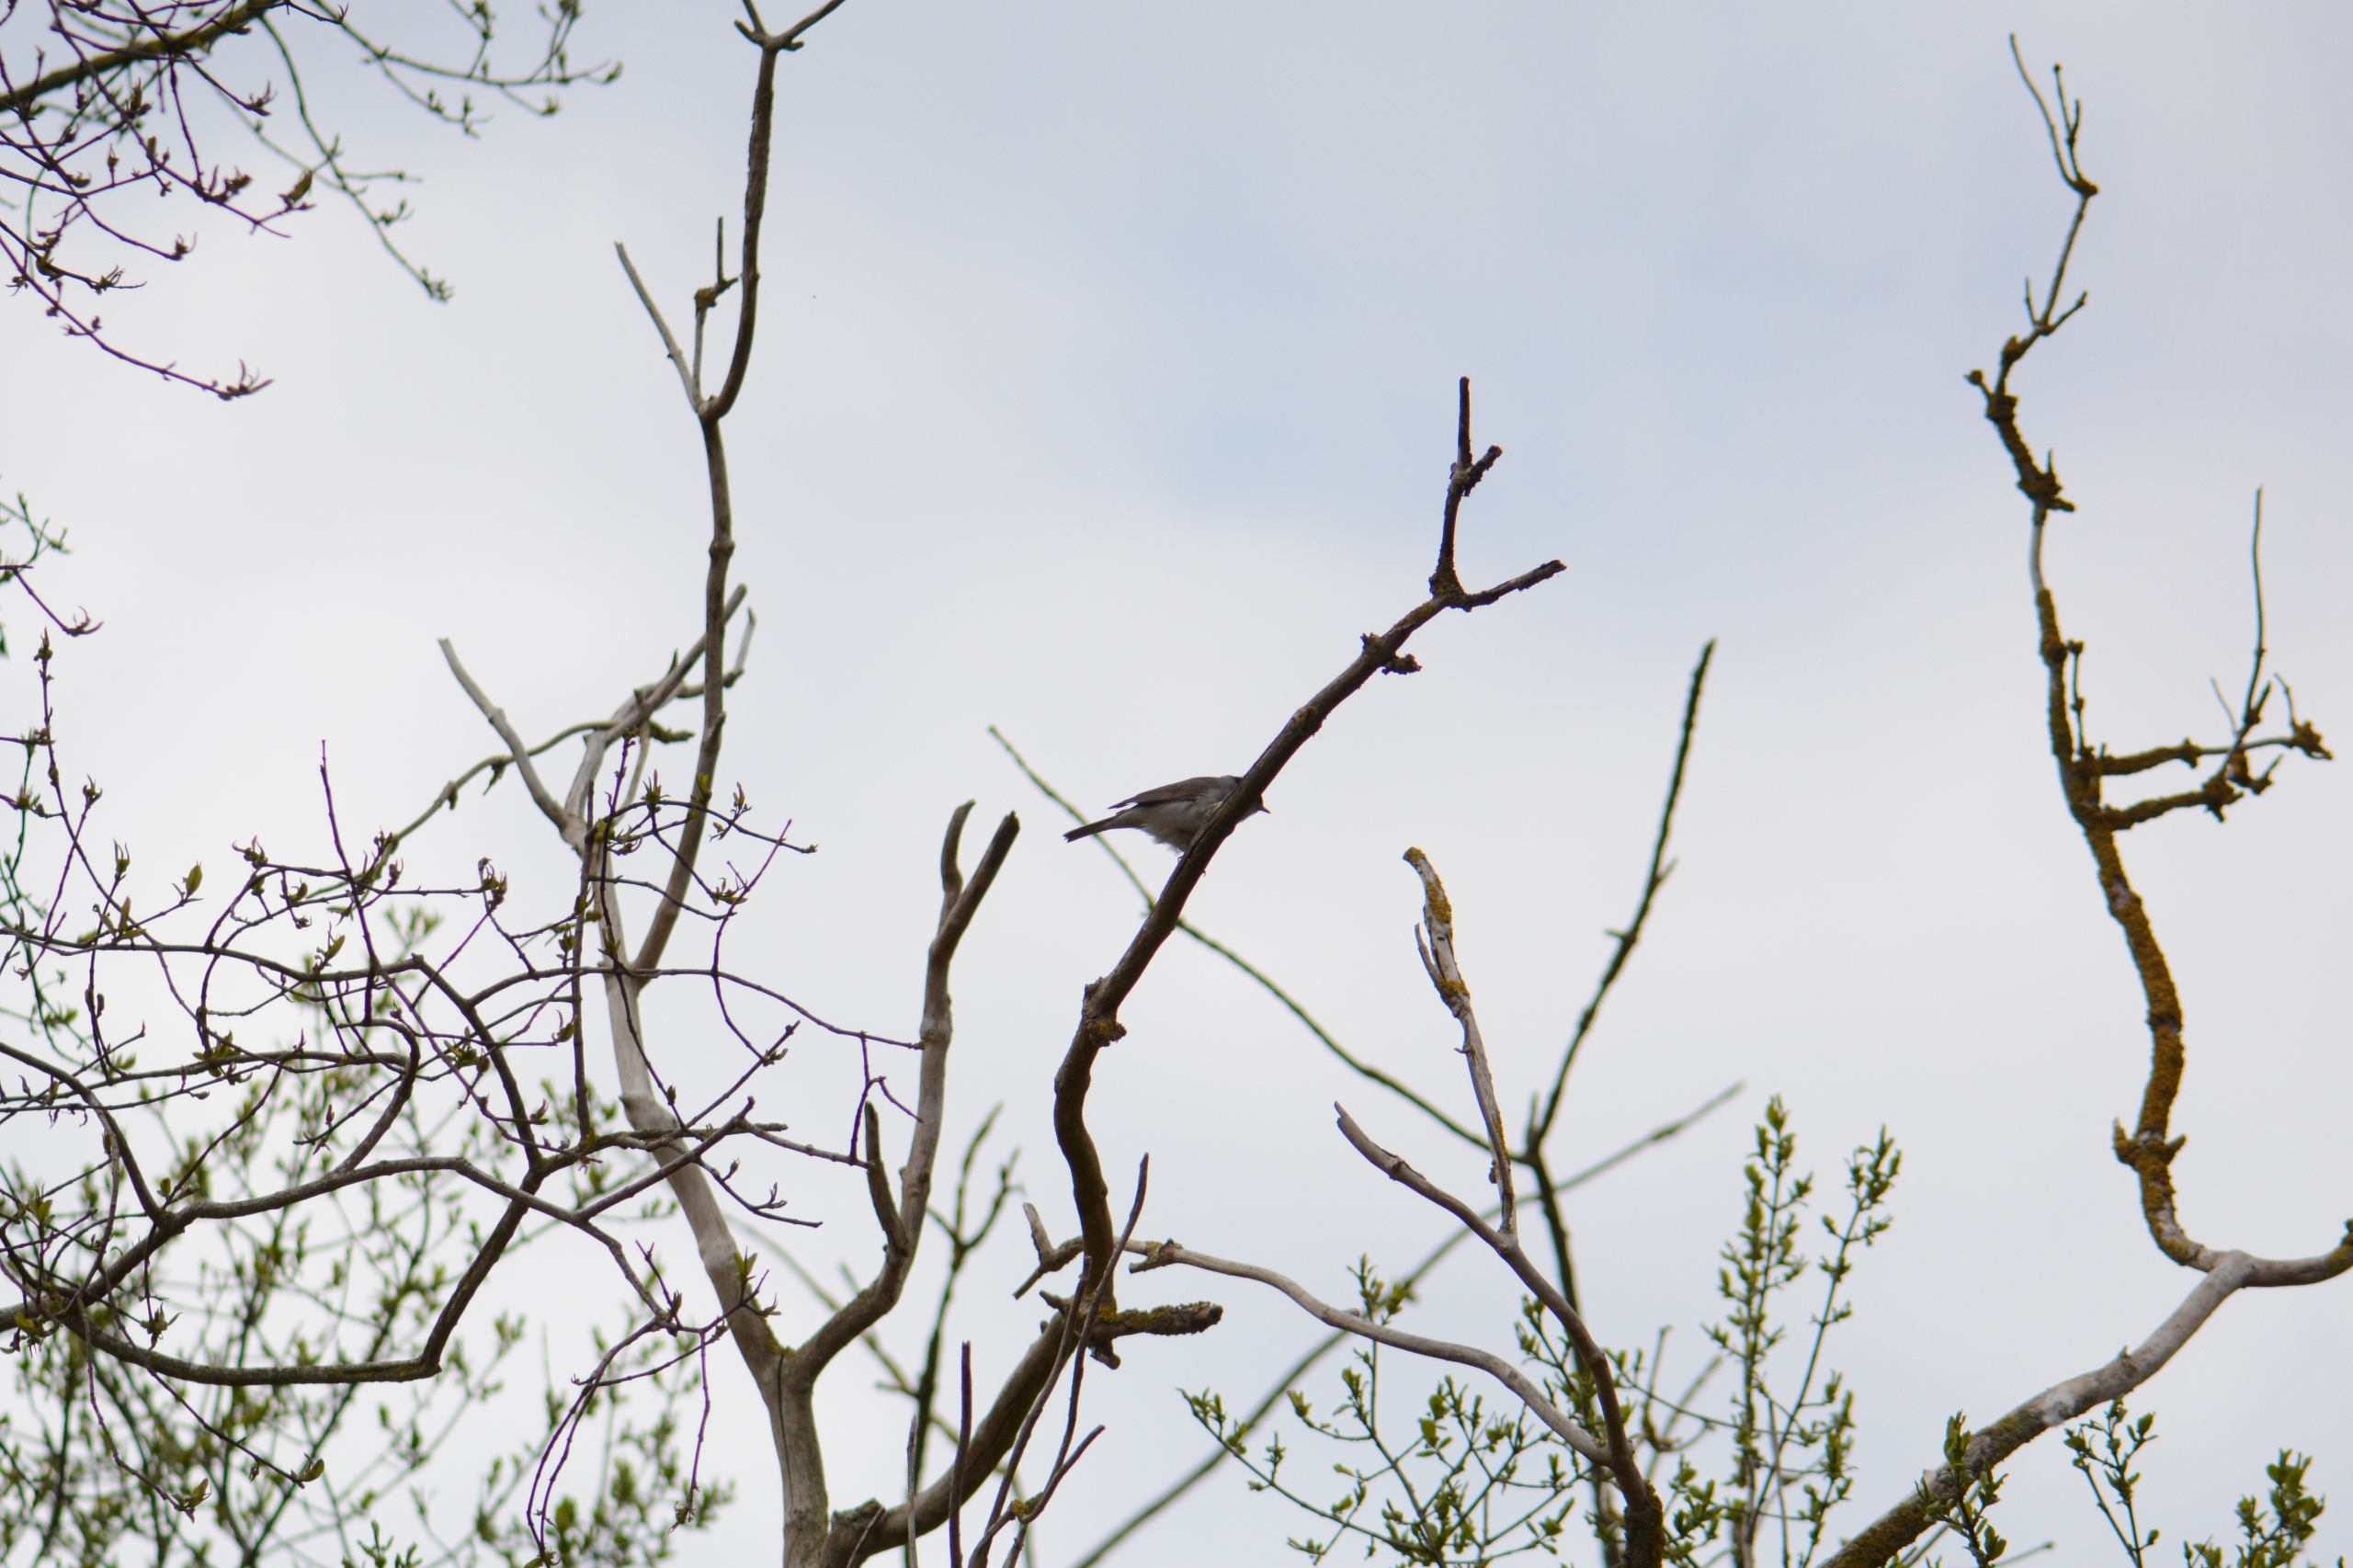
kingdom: Animalia
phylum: Chordata
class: Aves
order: Passeriformes
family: Sylviidae
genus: Sylvia
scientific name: Sylvia atricapilla
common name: Munk
